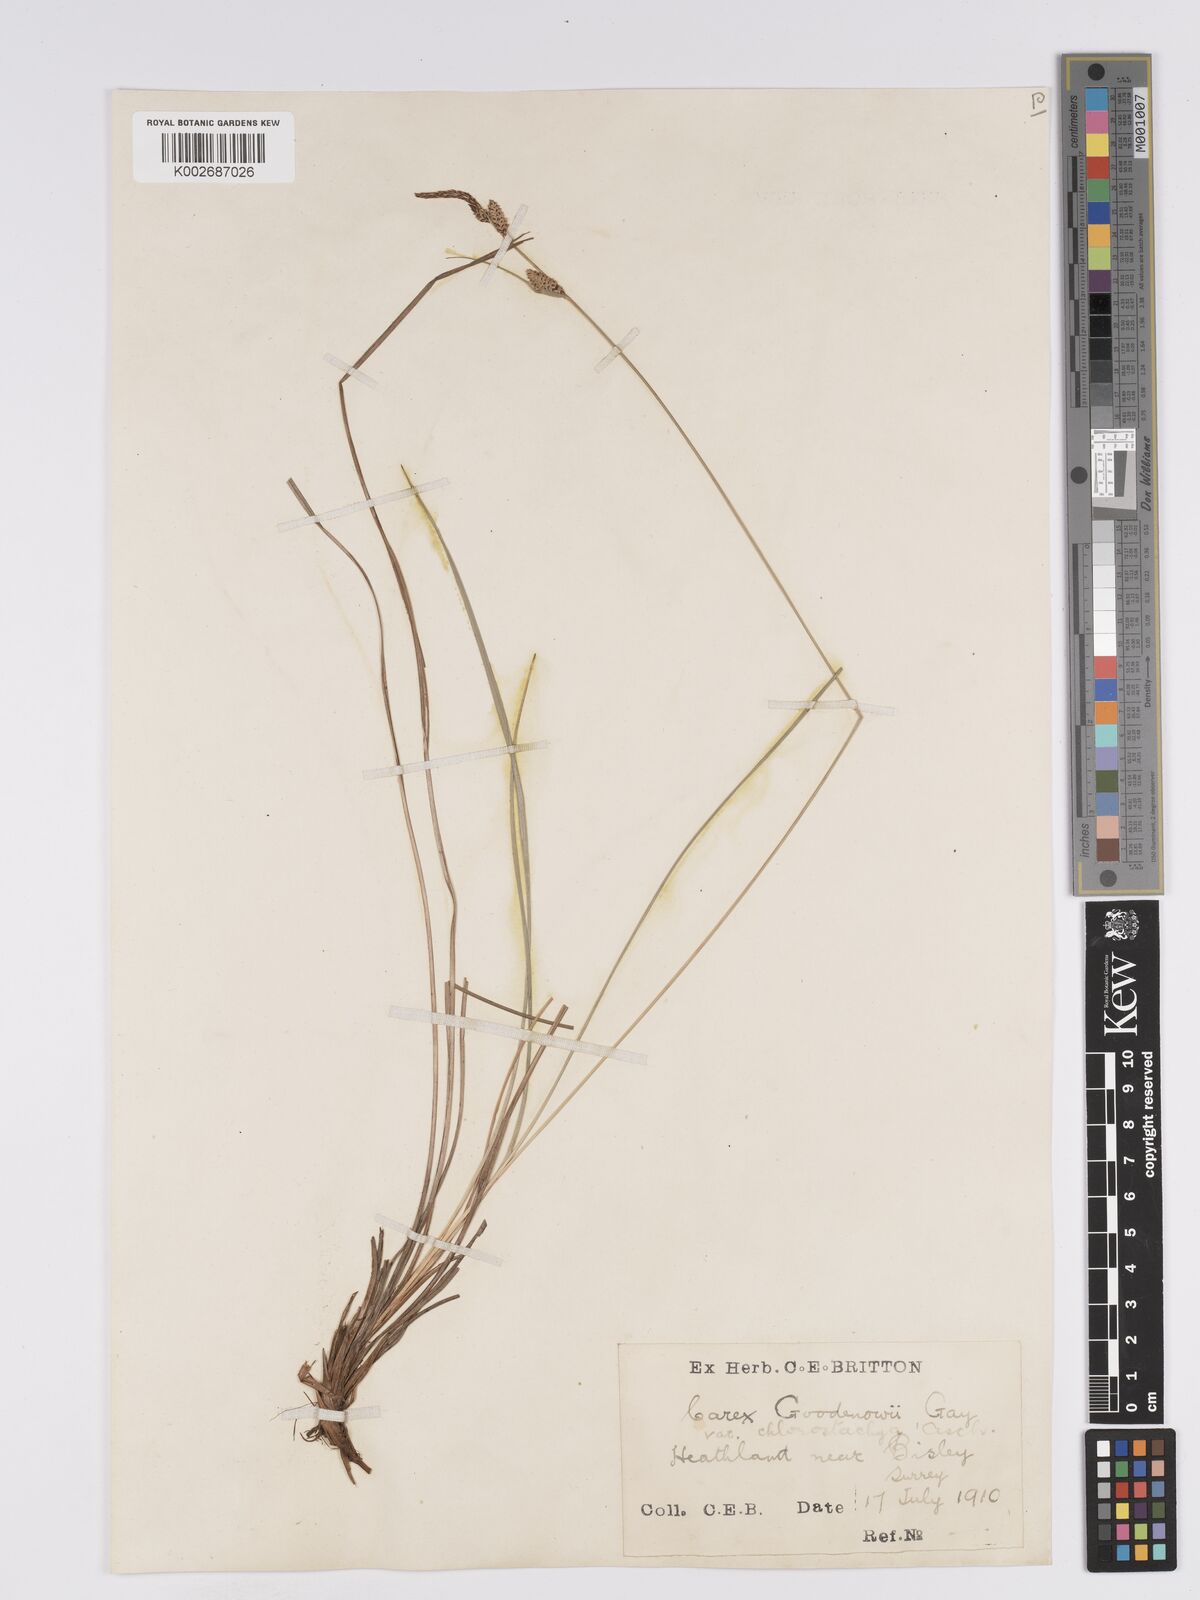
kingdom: Plantae
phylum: Tracheophyta
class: Liliopsida
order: Poales
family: Cyperaceae
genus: Carex
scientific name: Carex nigra
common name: Common sedge
